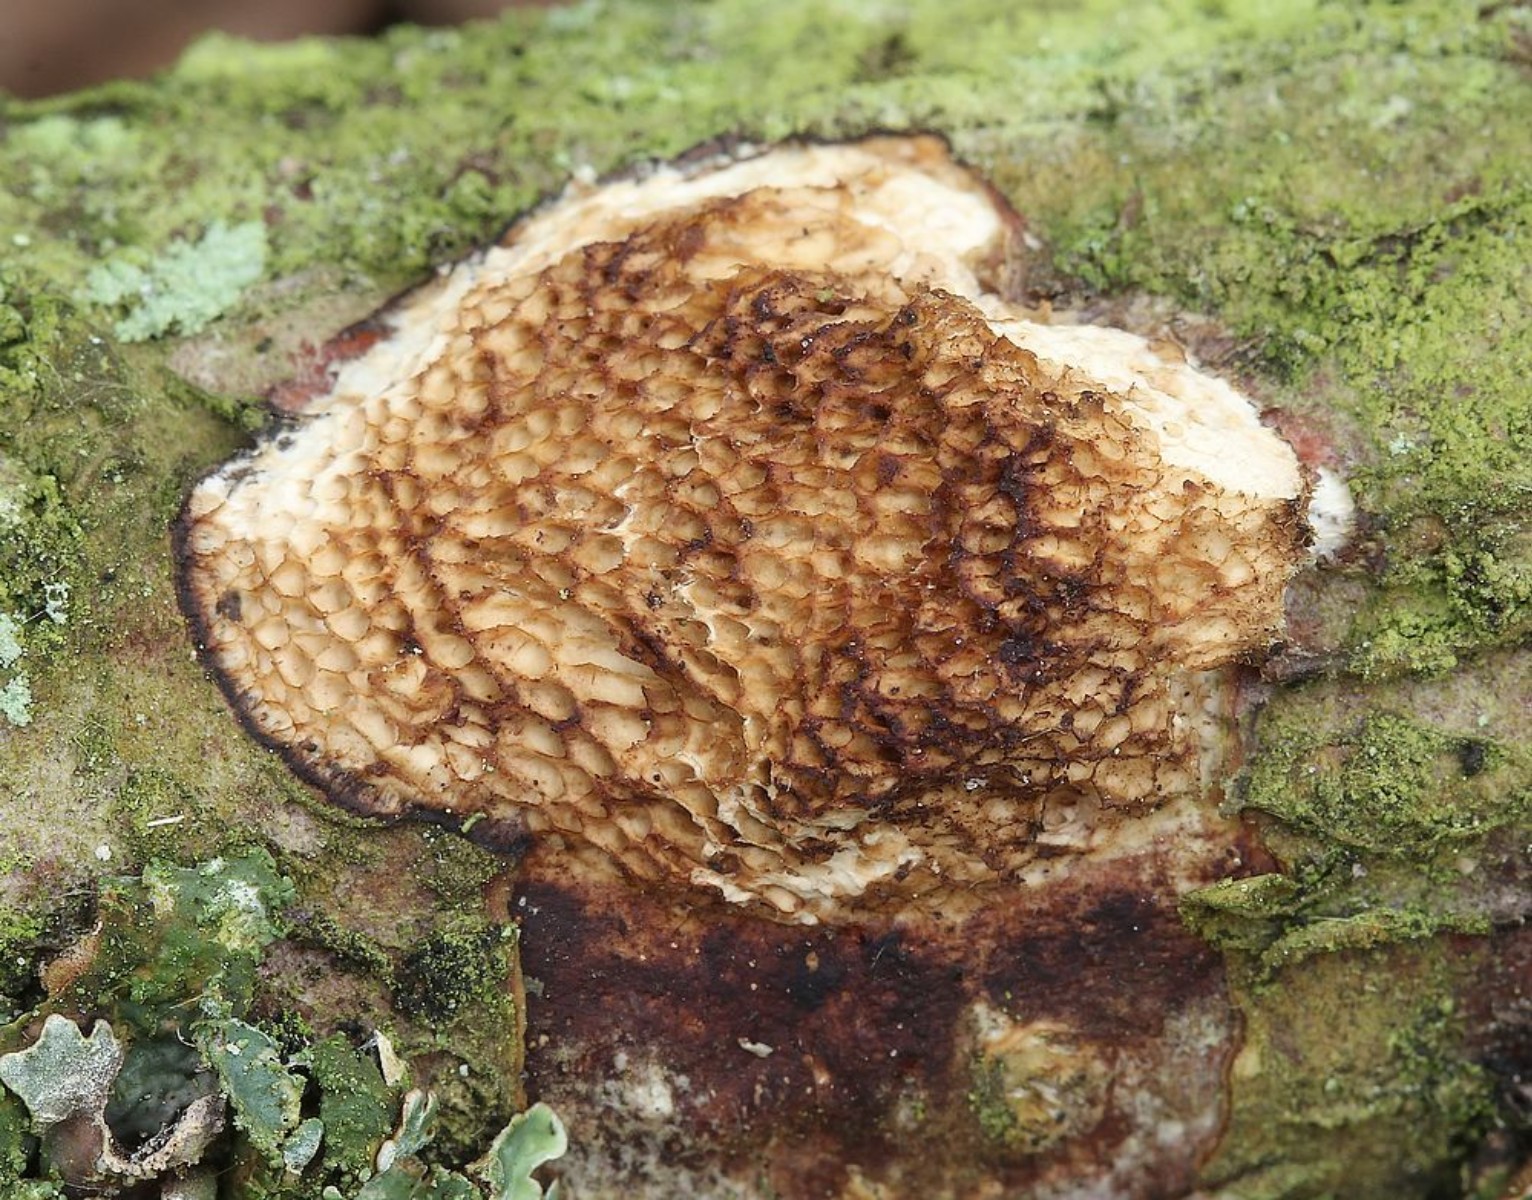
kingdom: Fungi
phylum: Basidiomycota
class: Agaricomycetes
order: Polyporales
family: Polyporaceae
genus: Szczepkamyces
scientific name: Szczepkamyces campestris
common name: hasselporesvamp
